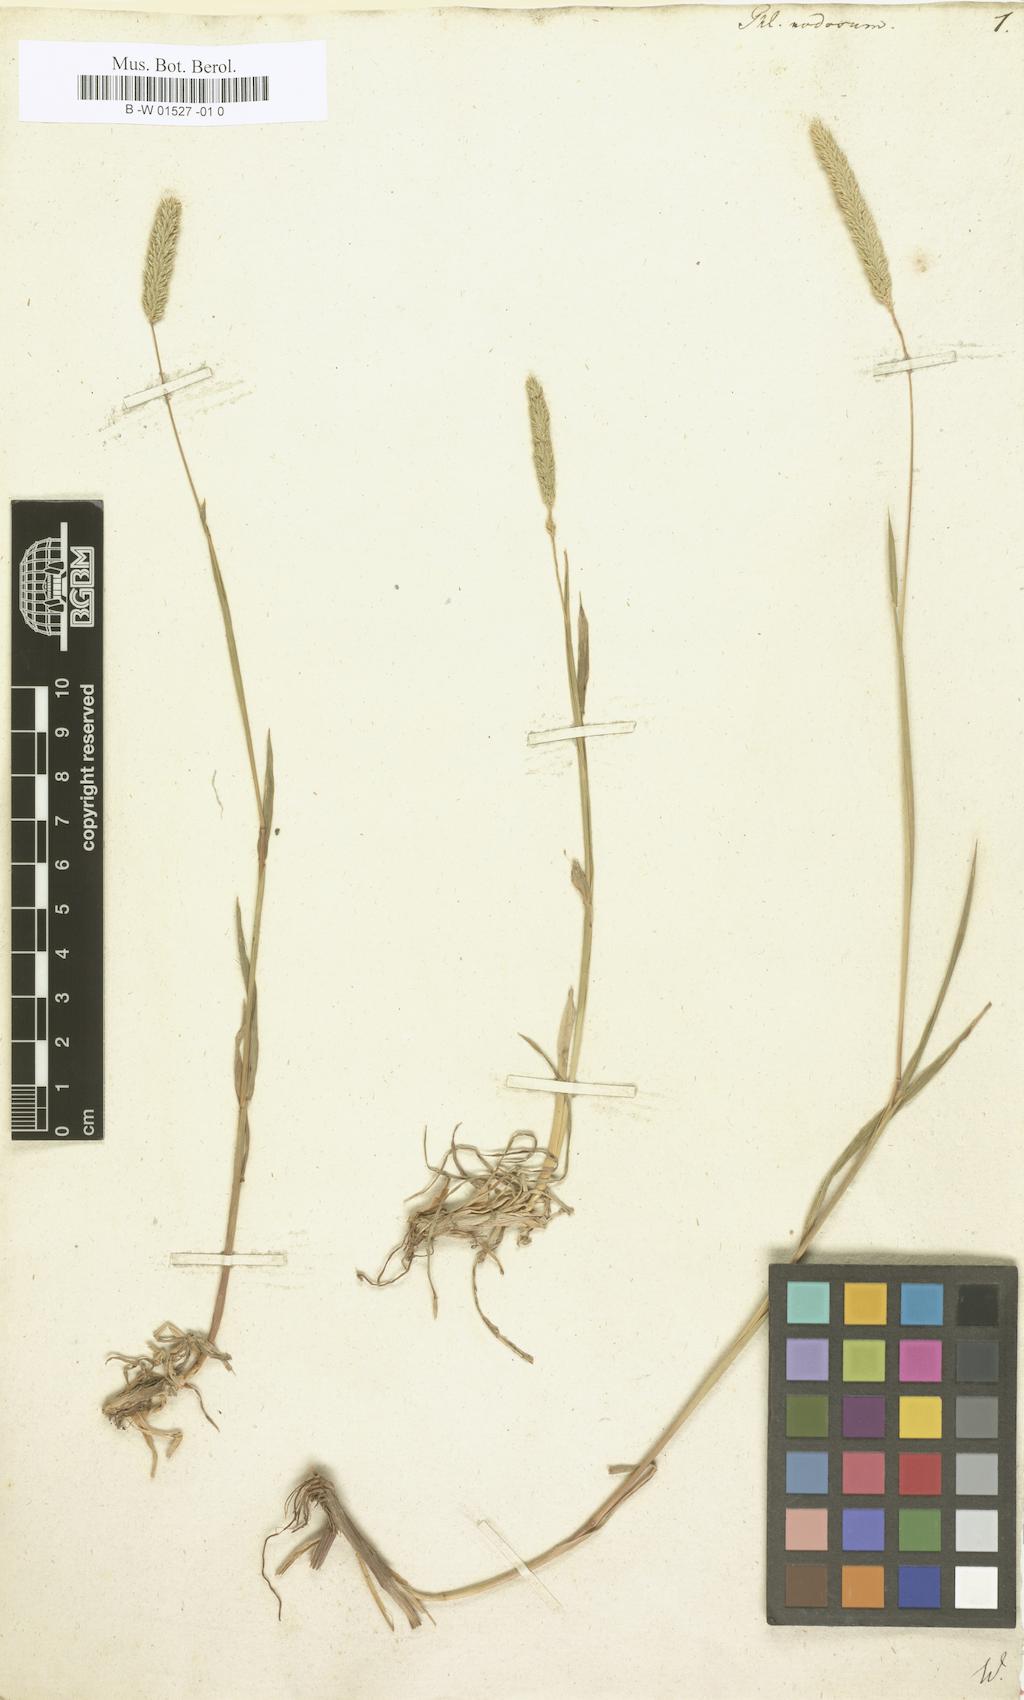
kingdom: Plantae
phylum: Tracheophyta
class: Liliopsida
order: Poales
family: Poaceae
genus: Phleum
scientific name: Phleum pratense
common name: Timothy grass
